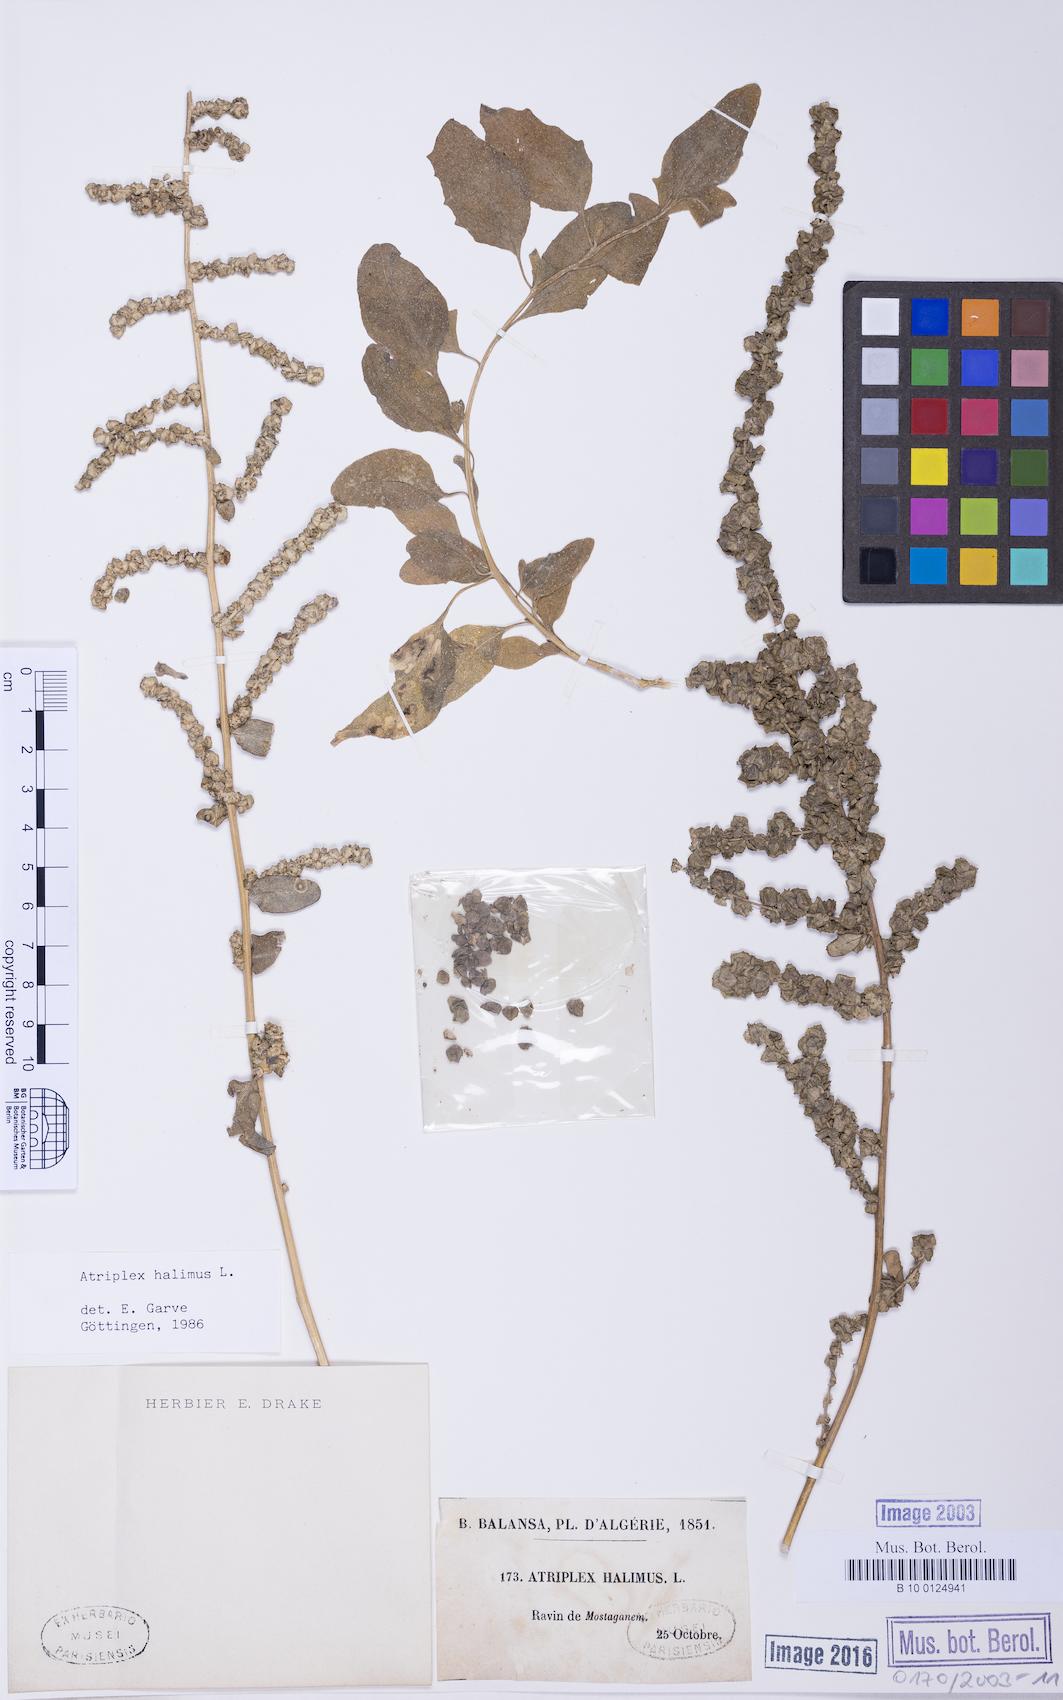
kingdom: Plantae
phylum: Tracheophyta
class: Magnoliopsida
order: Caryophyllales
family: Amaranthaceae
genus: Atriplex
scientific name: Atriplex halimus
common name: Shrubby orache
